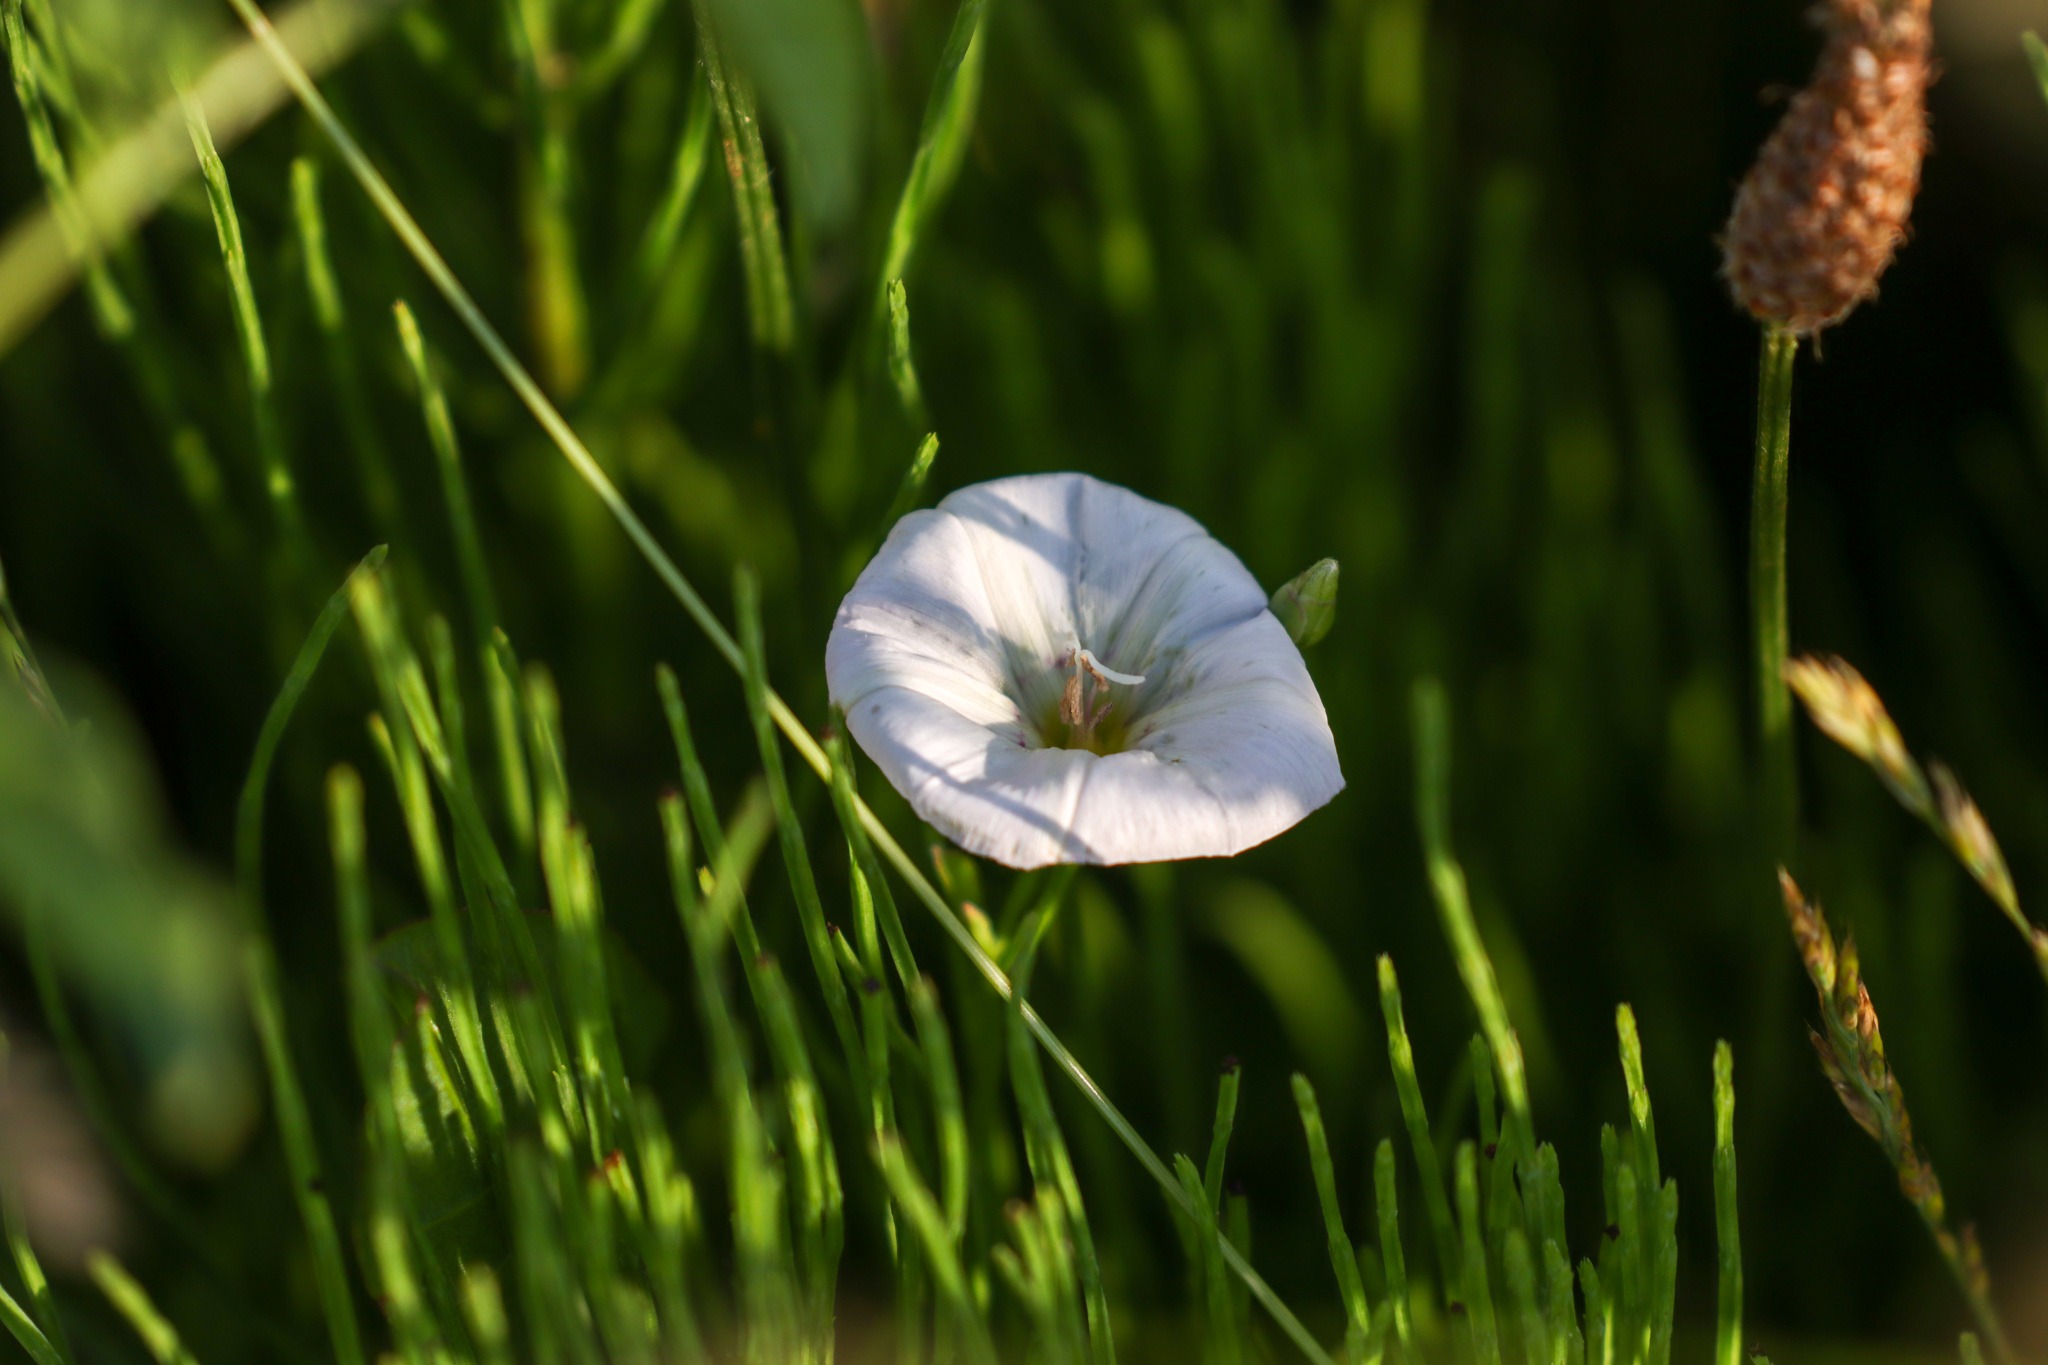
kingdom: Plantae
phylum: Tracheophyta
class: Magnoliopsida
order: Solanales
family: Convolvulaceae
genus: Convolvulus
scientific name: Convolvulus arvensis
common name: Ager-snerle
